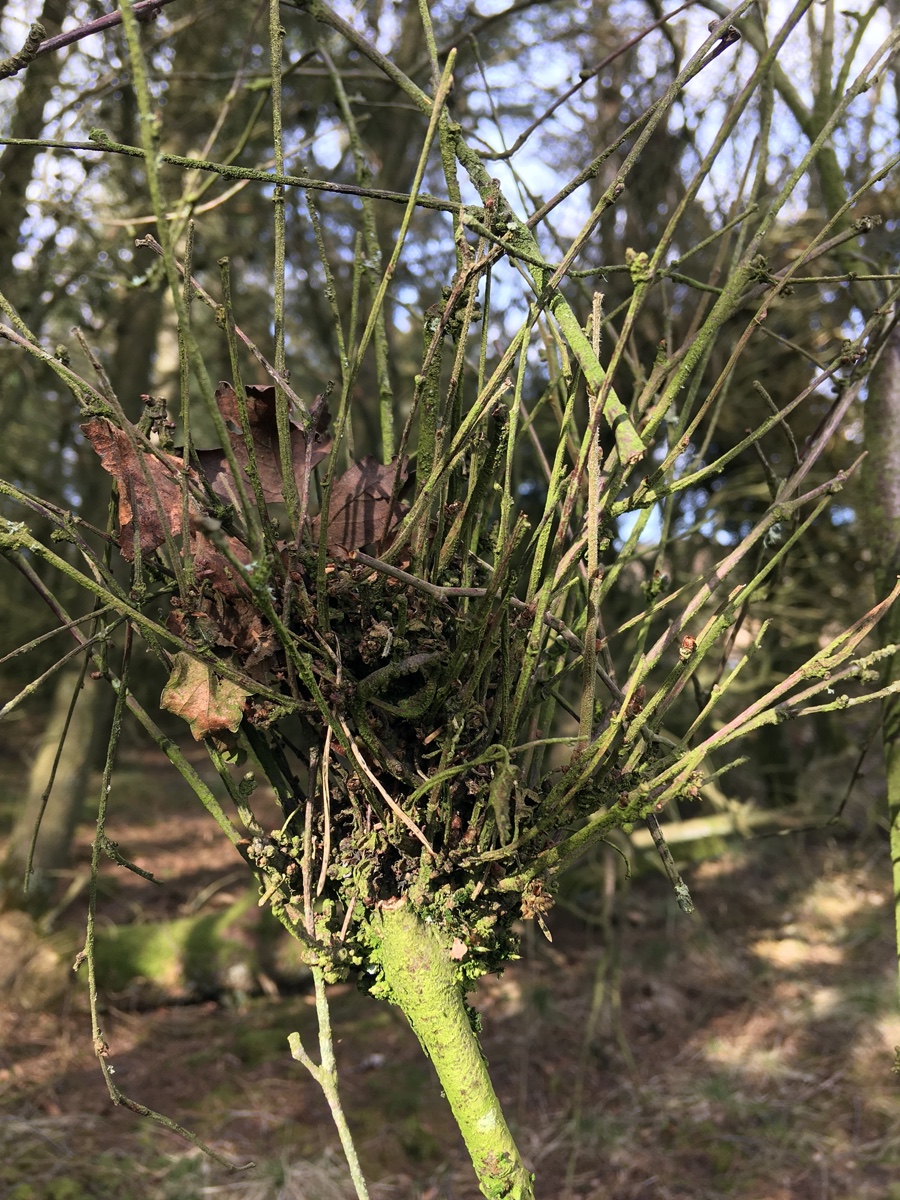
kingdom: Fungi
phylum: Ascomycota
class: Taphrinomycetes
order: Taphrinales
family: Taphrinaceae
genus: Taphrina
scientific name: Taphrina betulina
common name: hekse-sækdug
